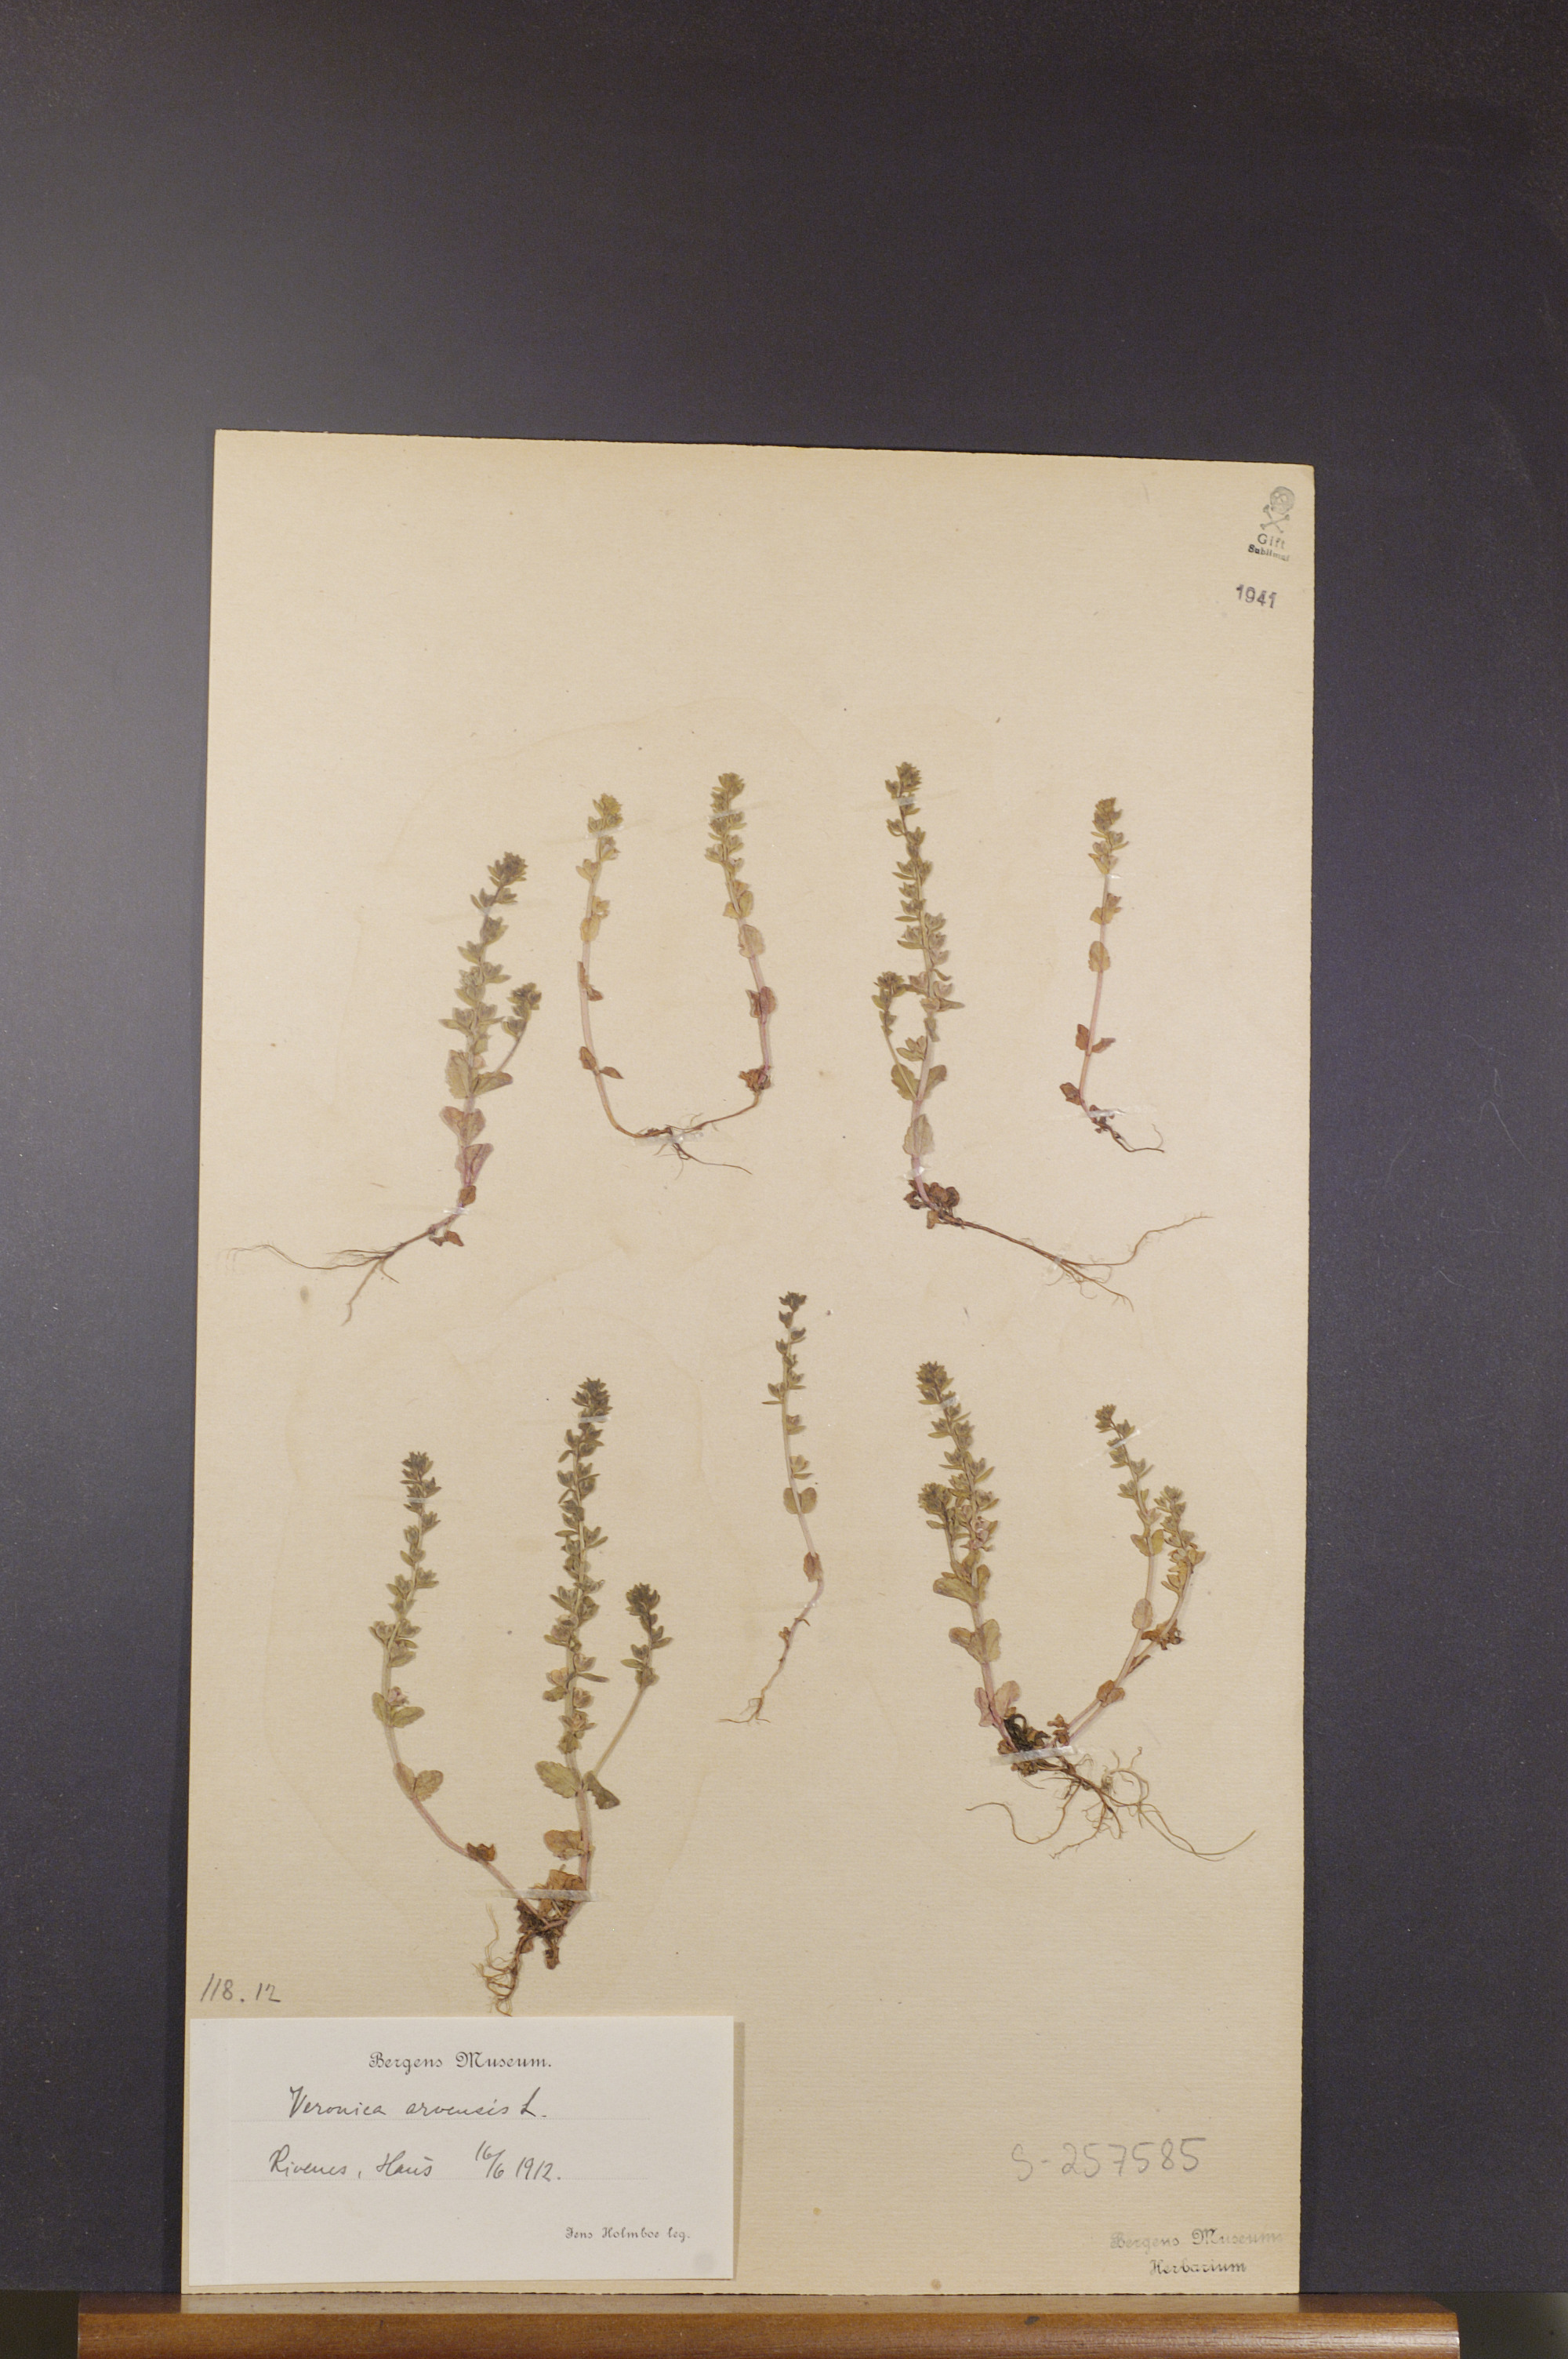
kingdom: Plantae
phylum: Tracheophyta
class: Magnoliopsida
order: Lamiales
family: Plantaginaceae
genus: Veronica
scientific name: Veronica arvensis
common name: Corn speedwell
